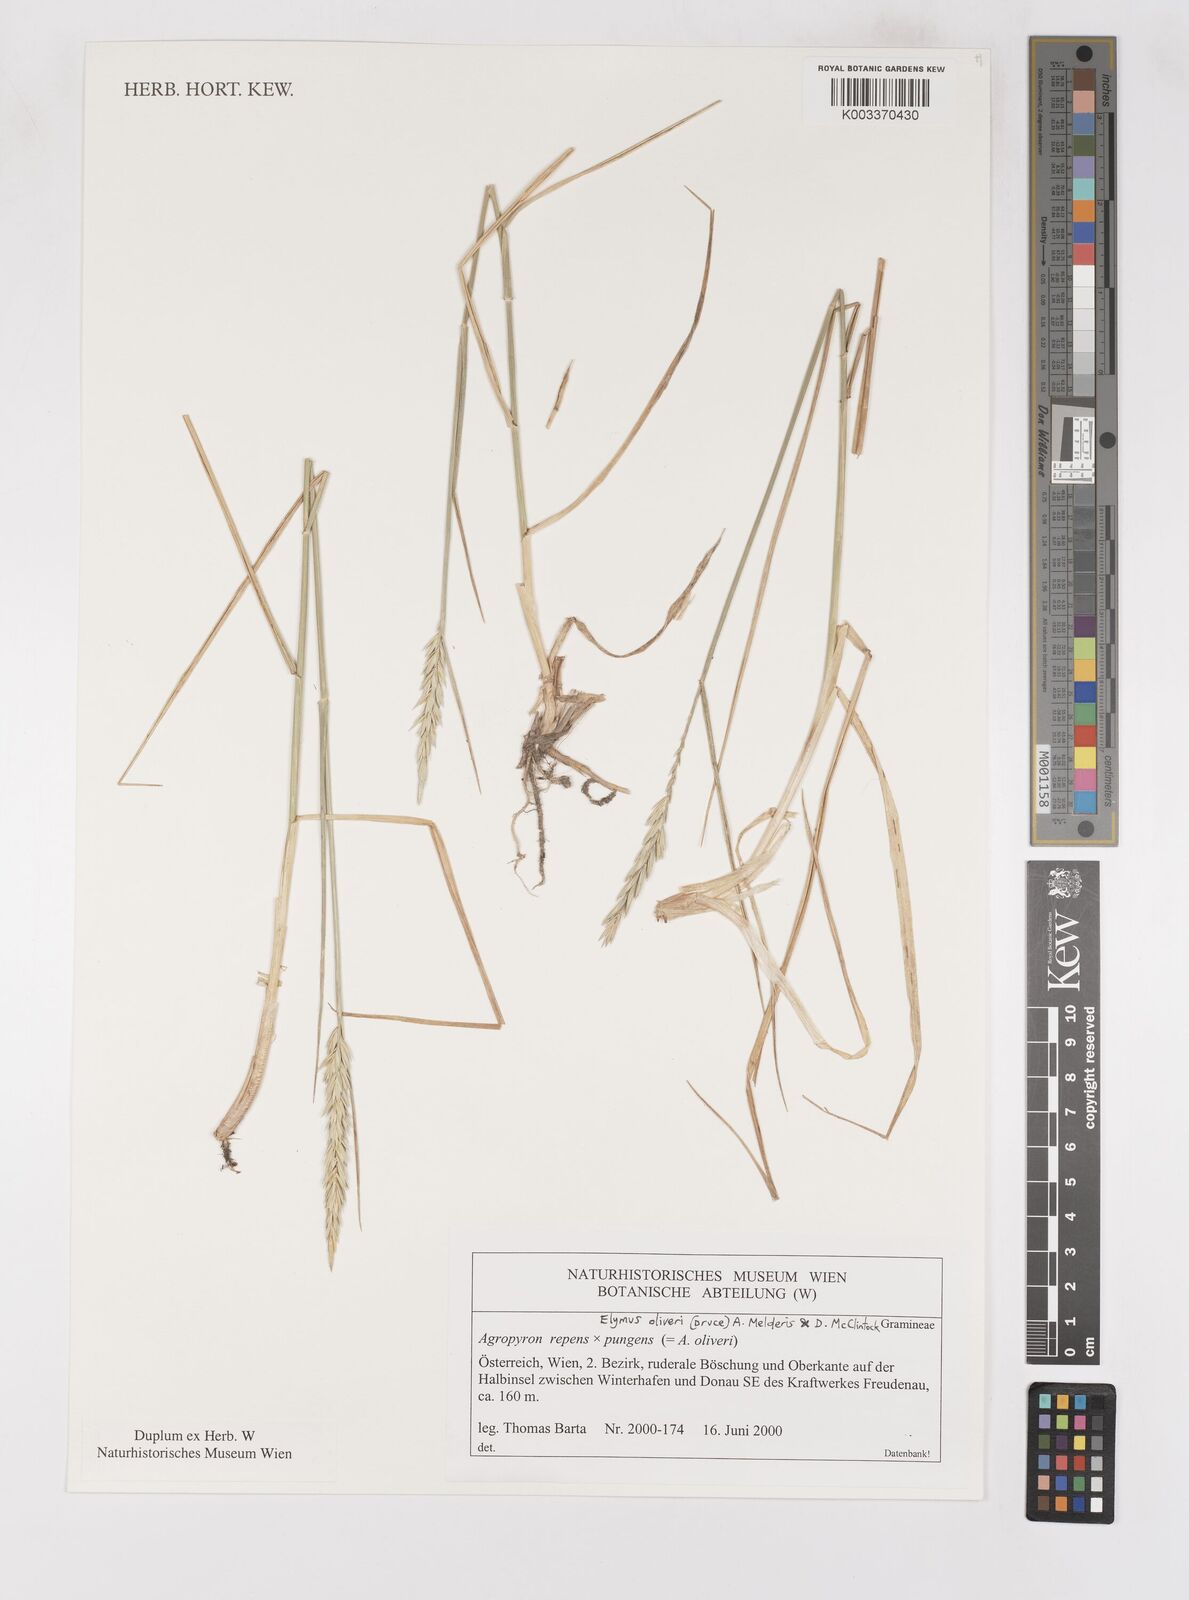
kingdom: Plantae
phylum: Tracheophyta
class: Liliopsida
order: Poales
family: Poaceae
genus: Elymus
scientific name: Elymus oliveri
